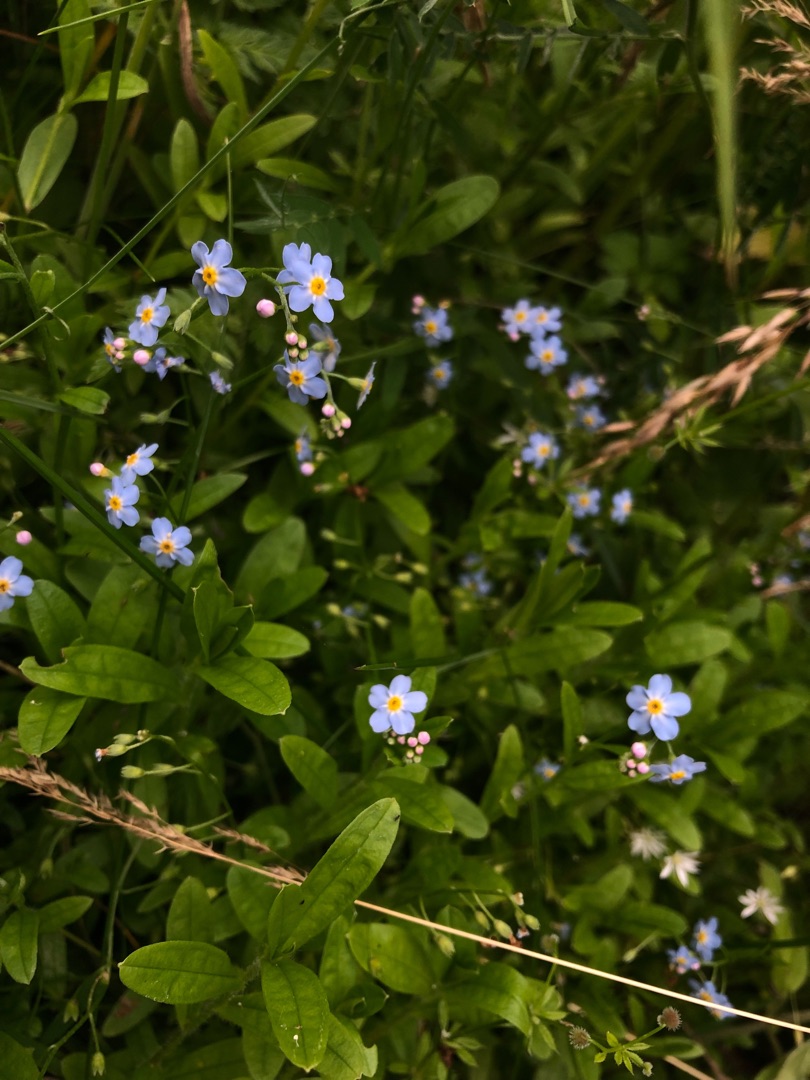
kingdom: Plantae
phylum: Tracheophyta
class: Magnoliopsida
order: Boraginales
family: Boraginaceae
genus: Myosotis
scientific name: Myosotis scorpioides
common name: Eng-forglemmigej
